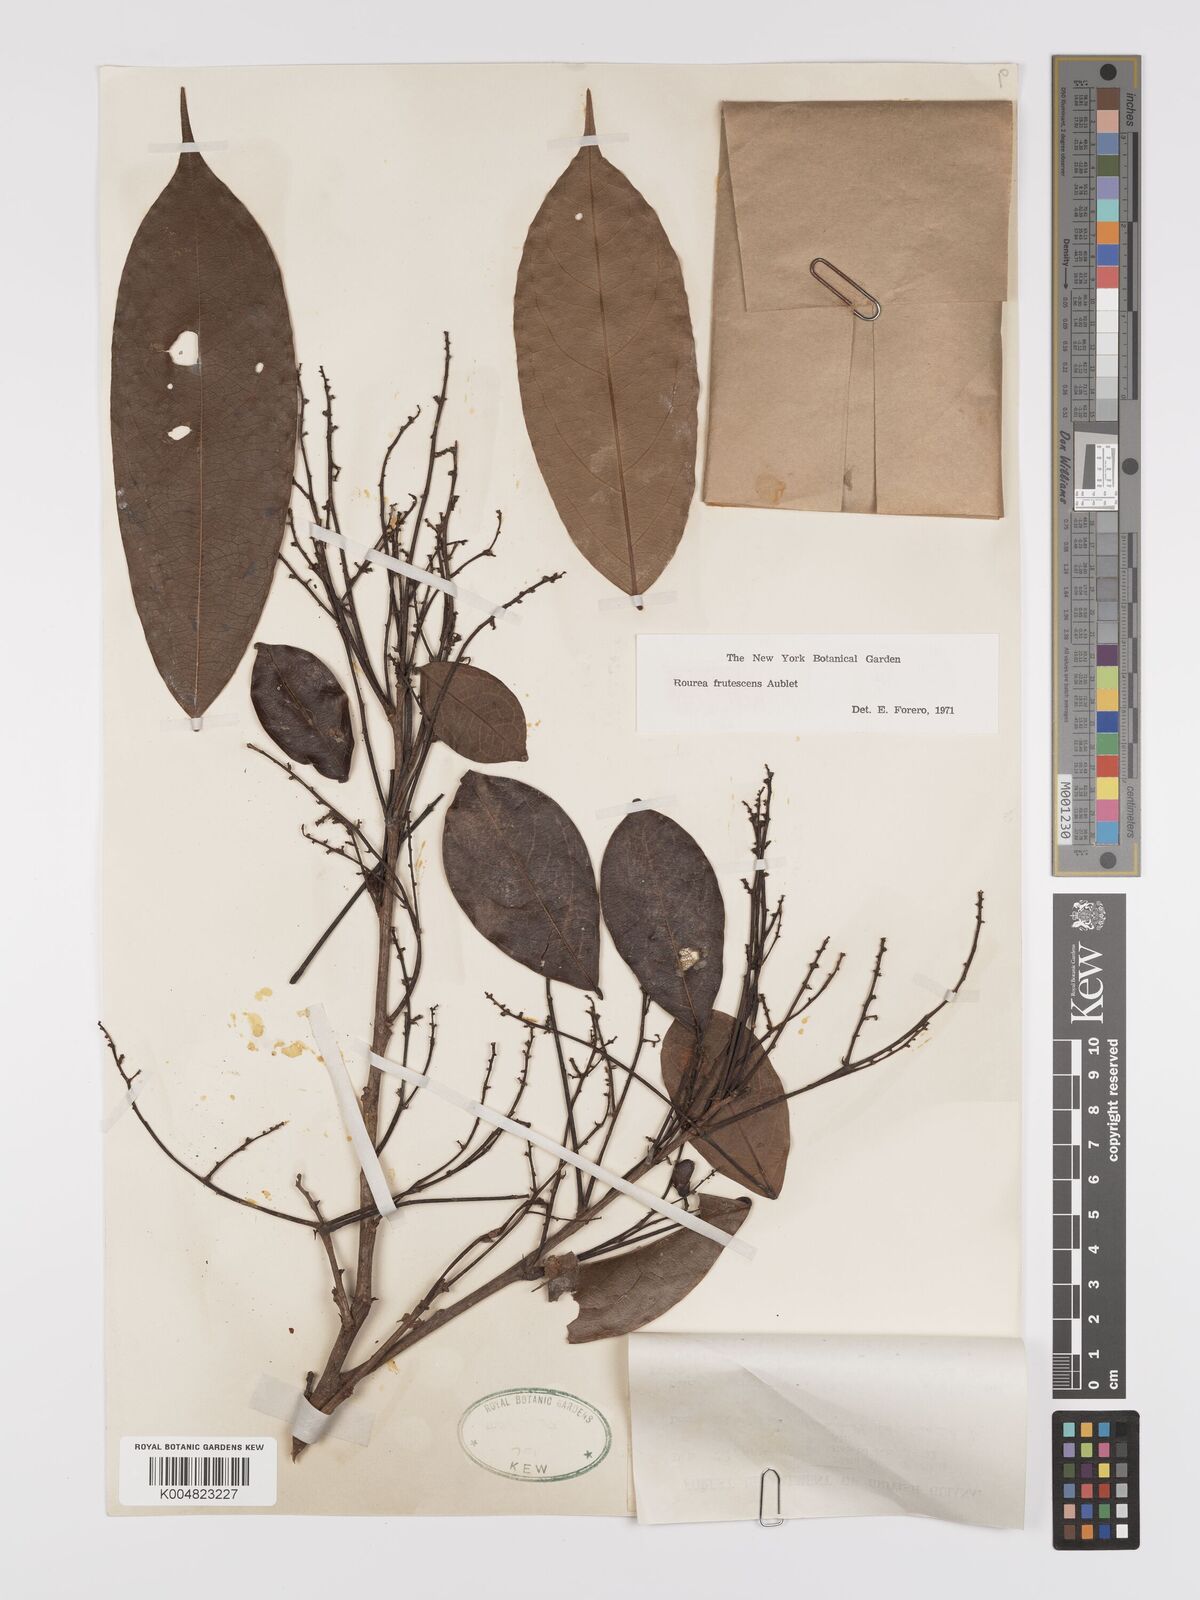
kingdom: Plantae
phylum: Tracheophyta
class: Magnoliopsida
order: Oxalidales
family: Connaraceae
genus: Rourea
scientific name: Rourea frutescens
